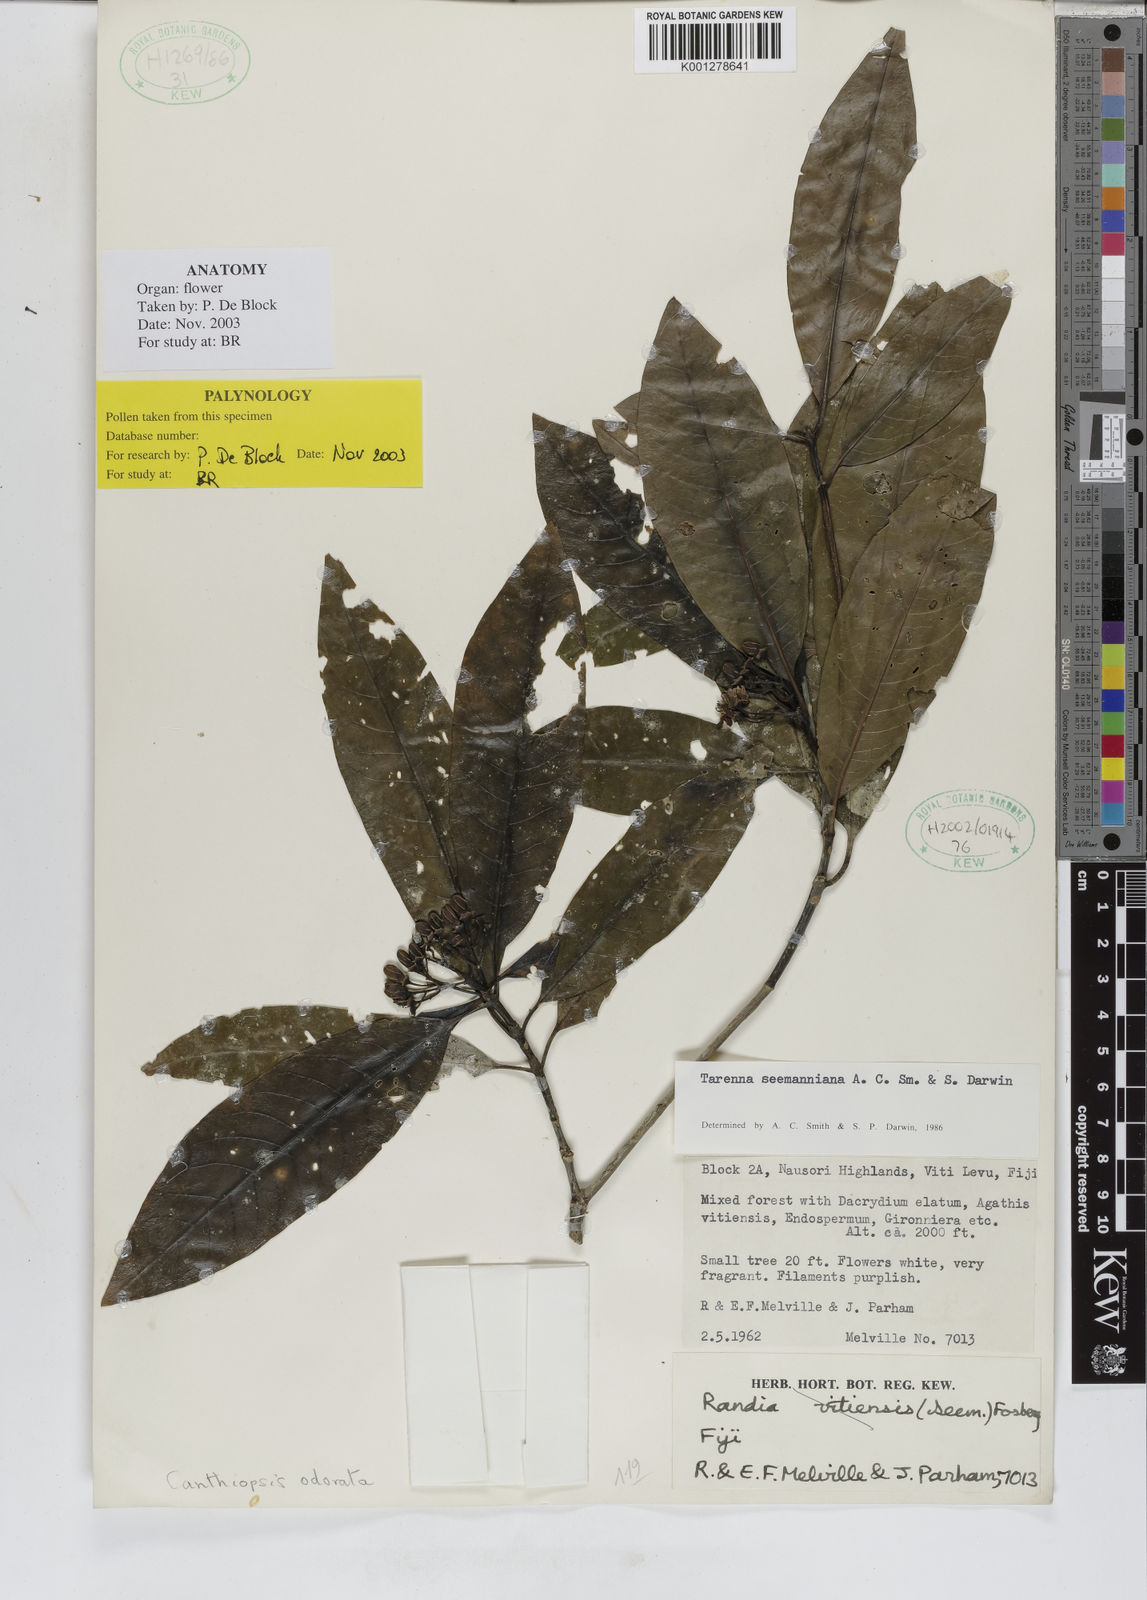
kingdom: Plantae
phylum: Tracheophyta
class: Magnoliopsida
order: Gentianales
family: Rubiaceae
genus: Tarenna
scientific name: Tarenna seemanniana
